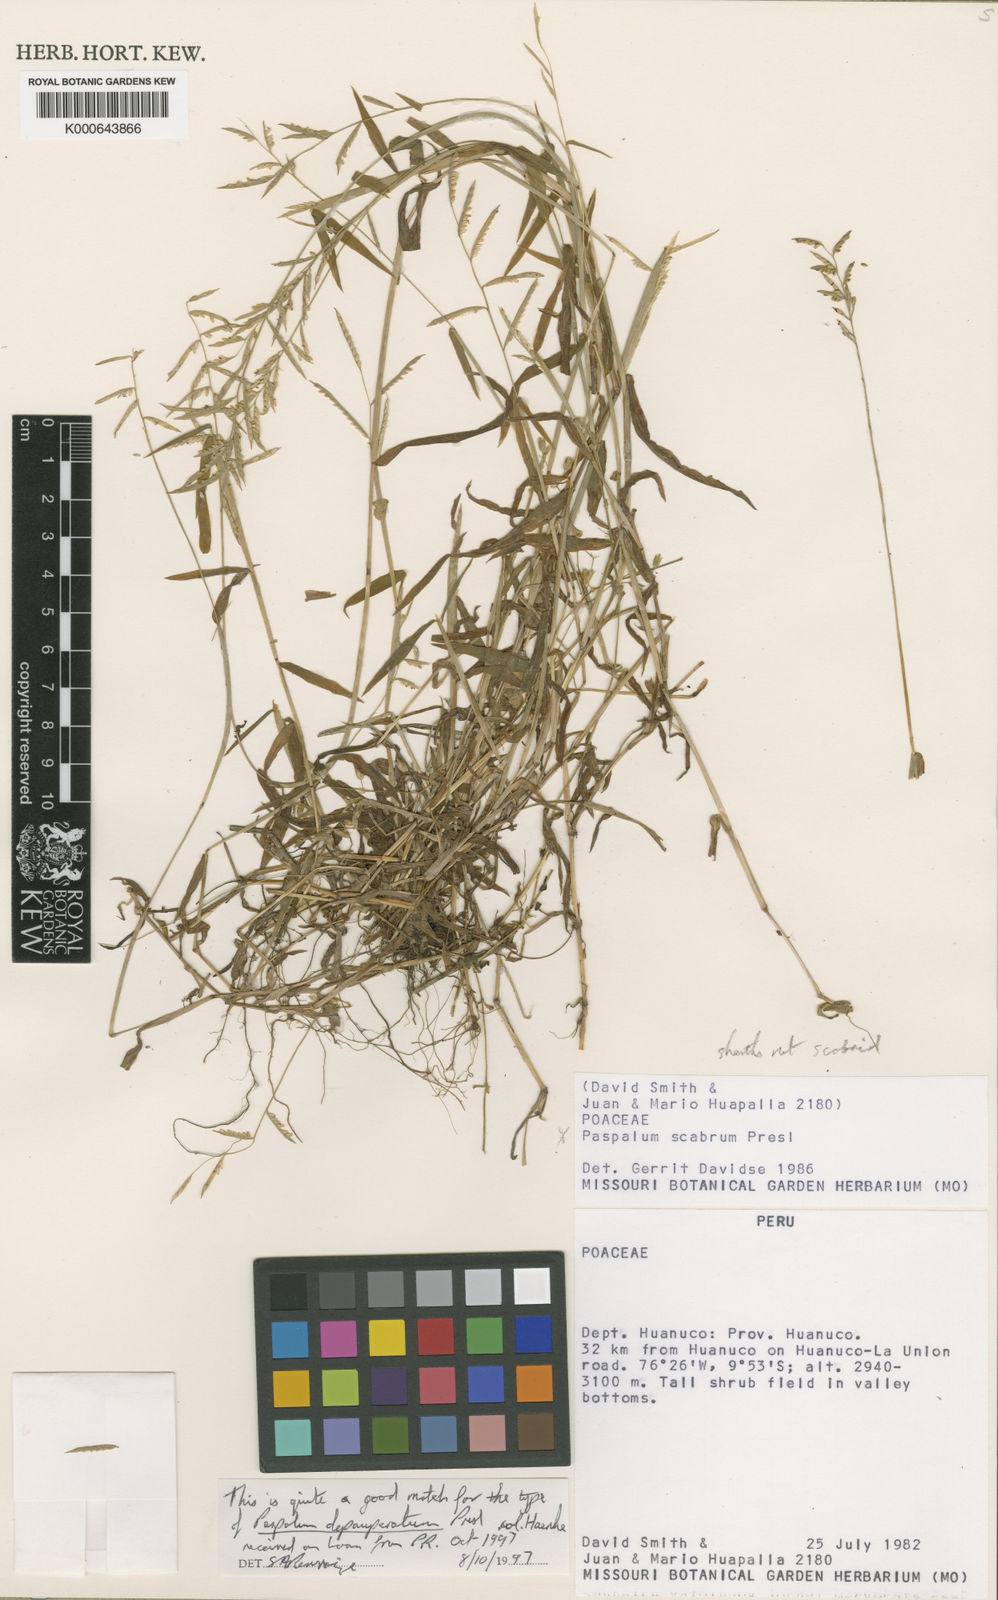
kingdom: Plantae
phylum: Tracheophyta
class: Liliopsida
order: Poales
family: Poaceae
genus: Paspalum
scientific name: Paspalum
